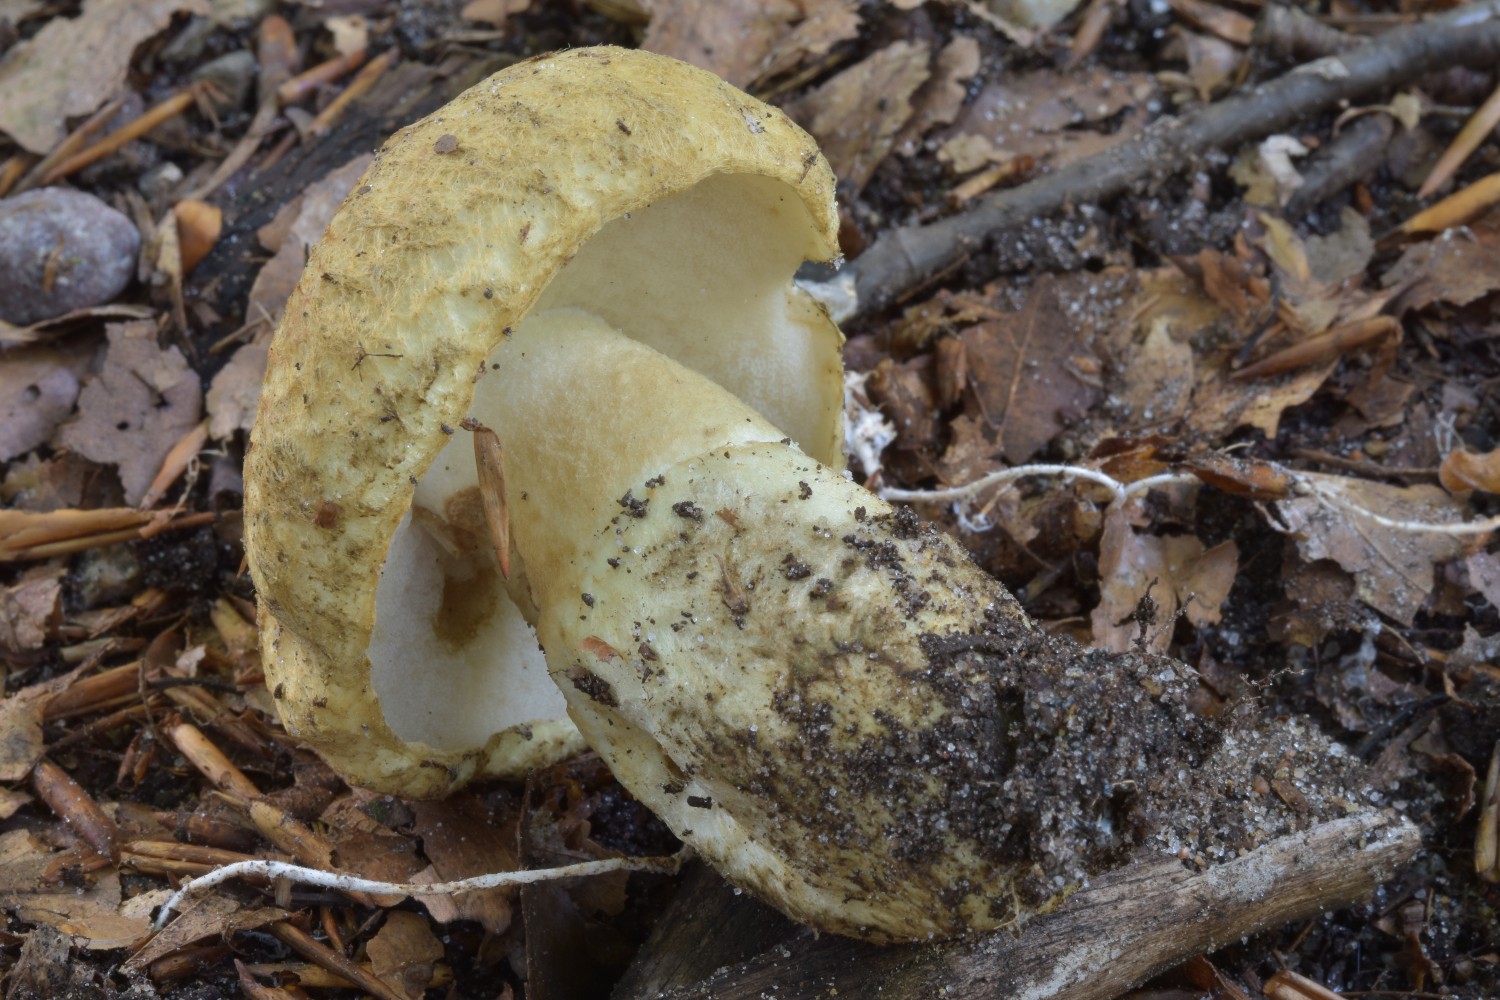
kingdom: Fungi
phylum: Basidiomycota
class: Agaricomycetes
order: Boletales
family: Gyroporaceae
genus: Gyroporus
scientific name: Gyroporus cyanescens
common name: blånende kammerrørhat
